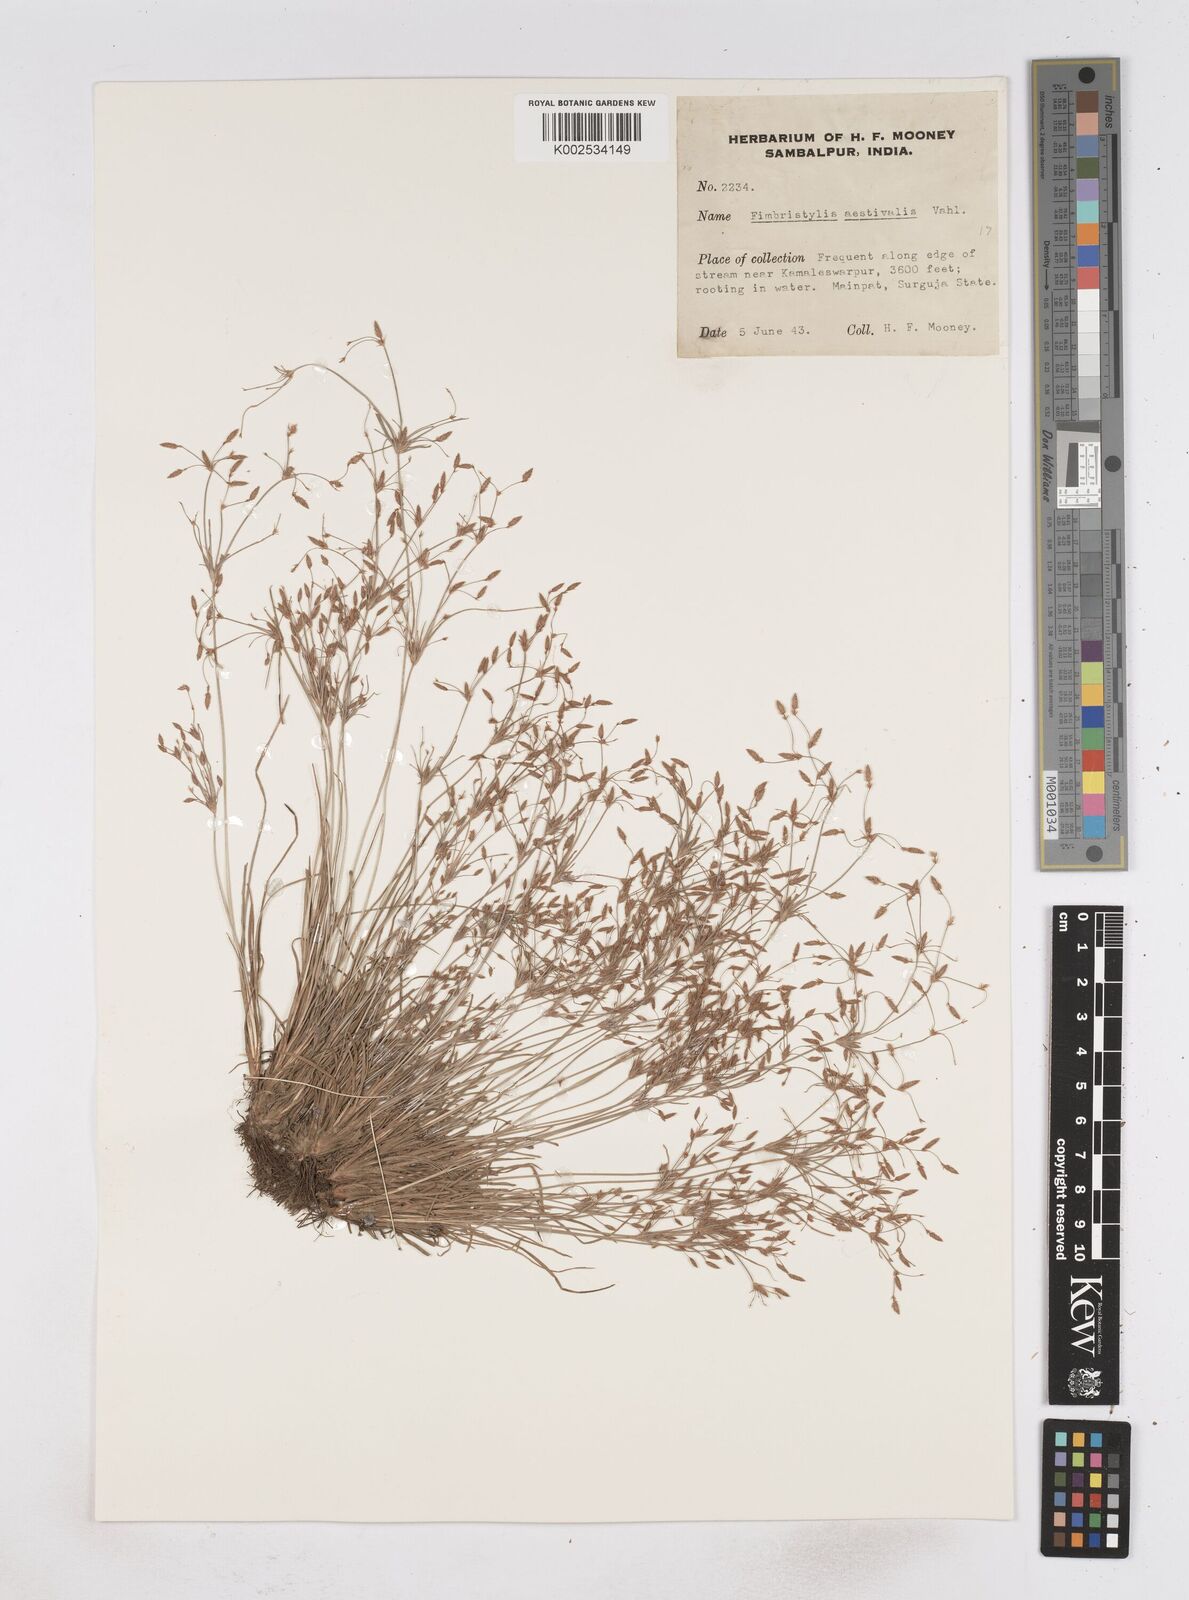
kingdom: Plantae
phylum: Tracheophyta
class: Liliopsida
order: Poales
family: Cyperaceae
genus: Fimbristylis
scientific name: Fimbristylis aestivalis
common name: Summer fimbry
